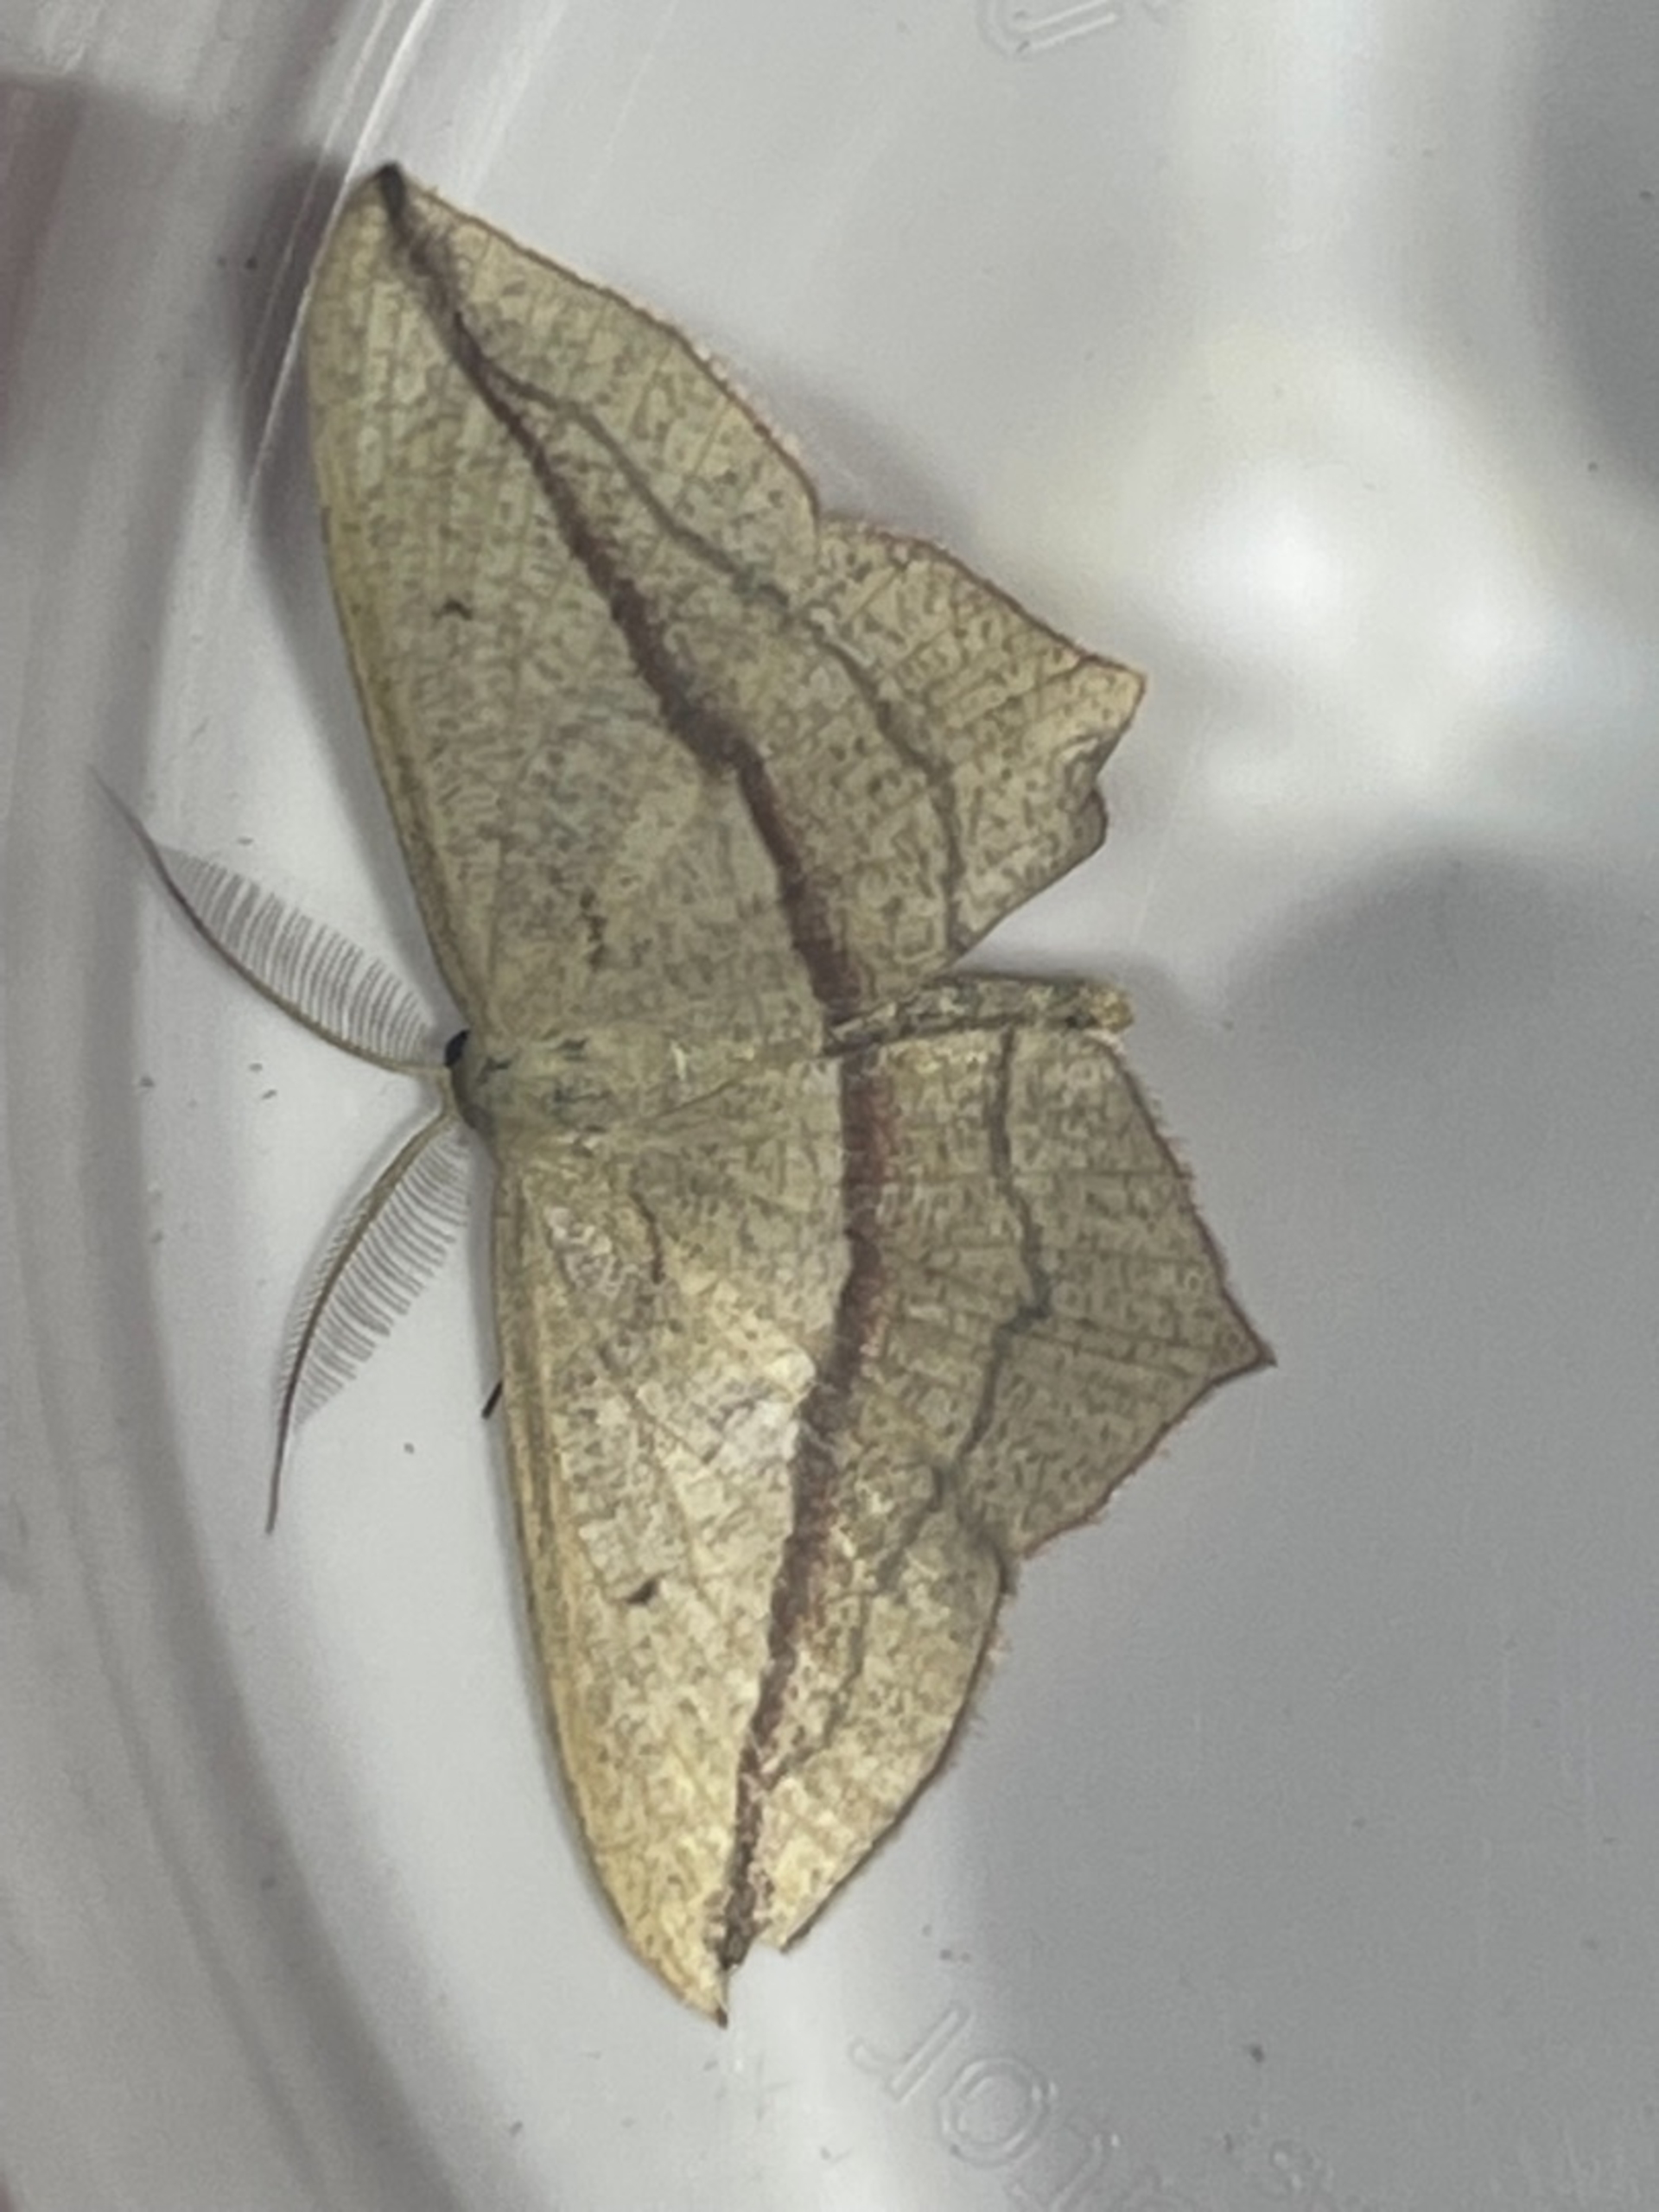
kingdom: Animalia
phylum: Arthropoda
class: Insecta
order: Lepidoptera
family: Geometridae
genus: Timandra
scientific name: Timandra griseata
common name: Syremåler
